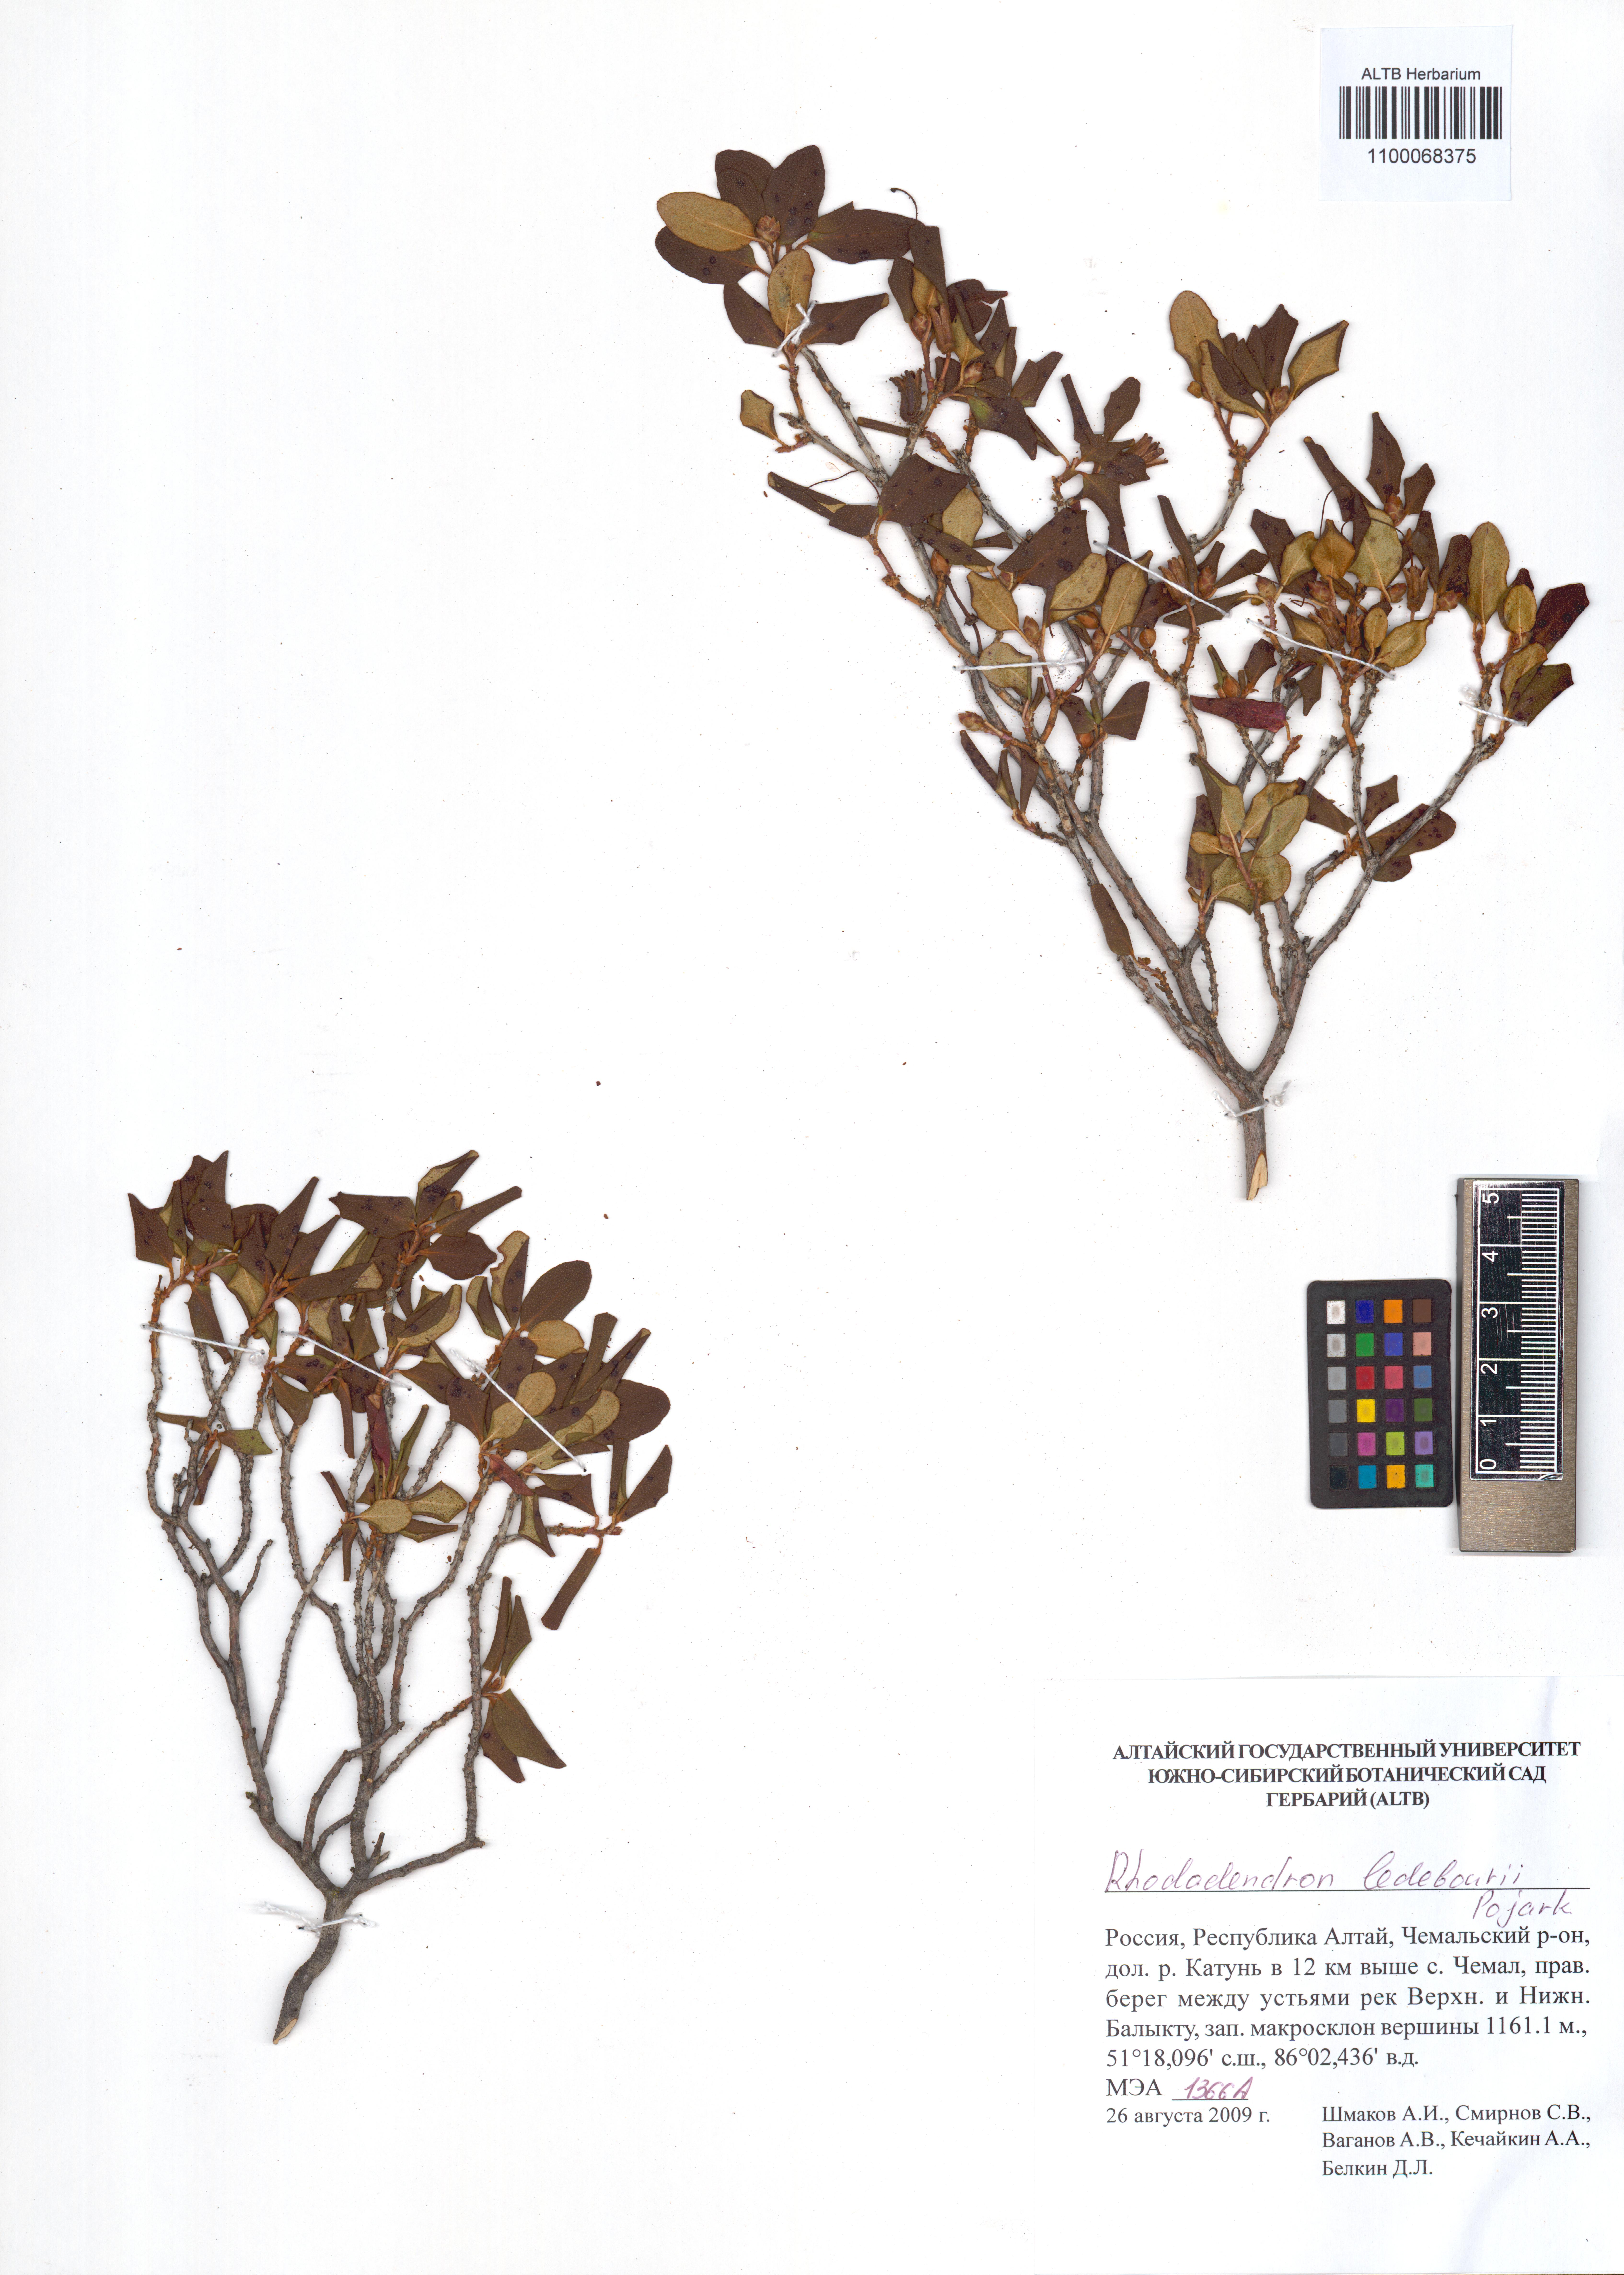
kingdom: Plantae
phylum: Tracheophyta
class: Magnoliopsida
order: Ericales
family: Ericaceae
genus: Rhododendron
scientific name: Rhododendron dauricum
